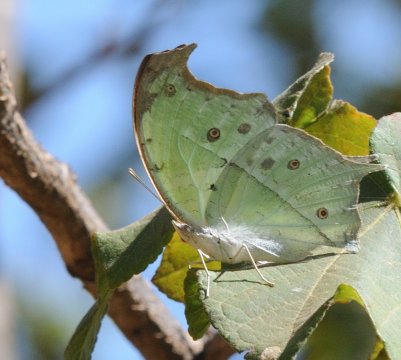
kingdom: Animalia
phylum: Arthropoda
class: Insecta
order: Lepidoptera
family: Nymphalidae
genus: Salamis
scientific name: Salamis Protogoniomorpha parhassus
